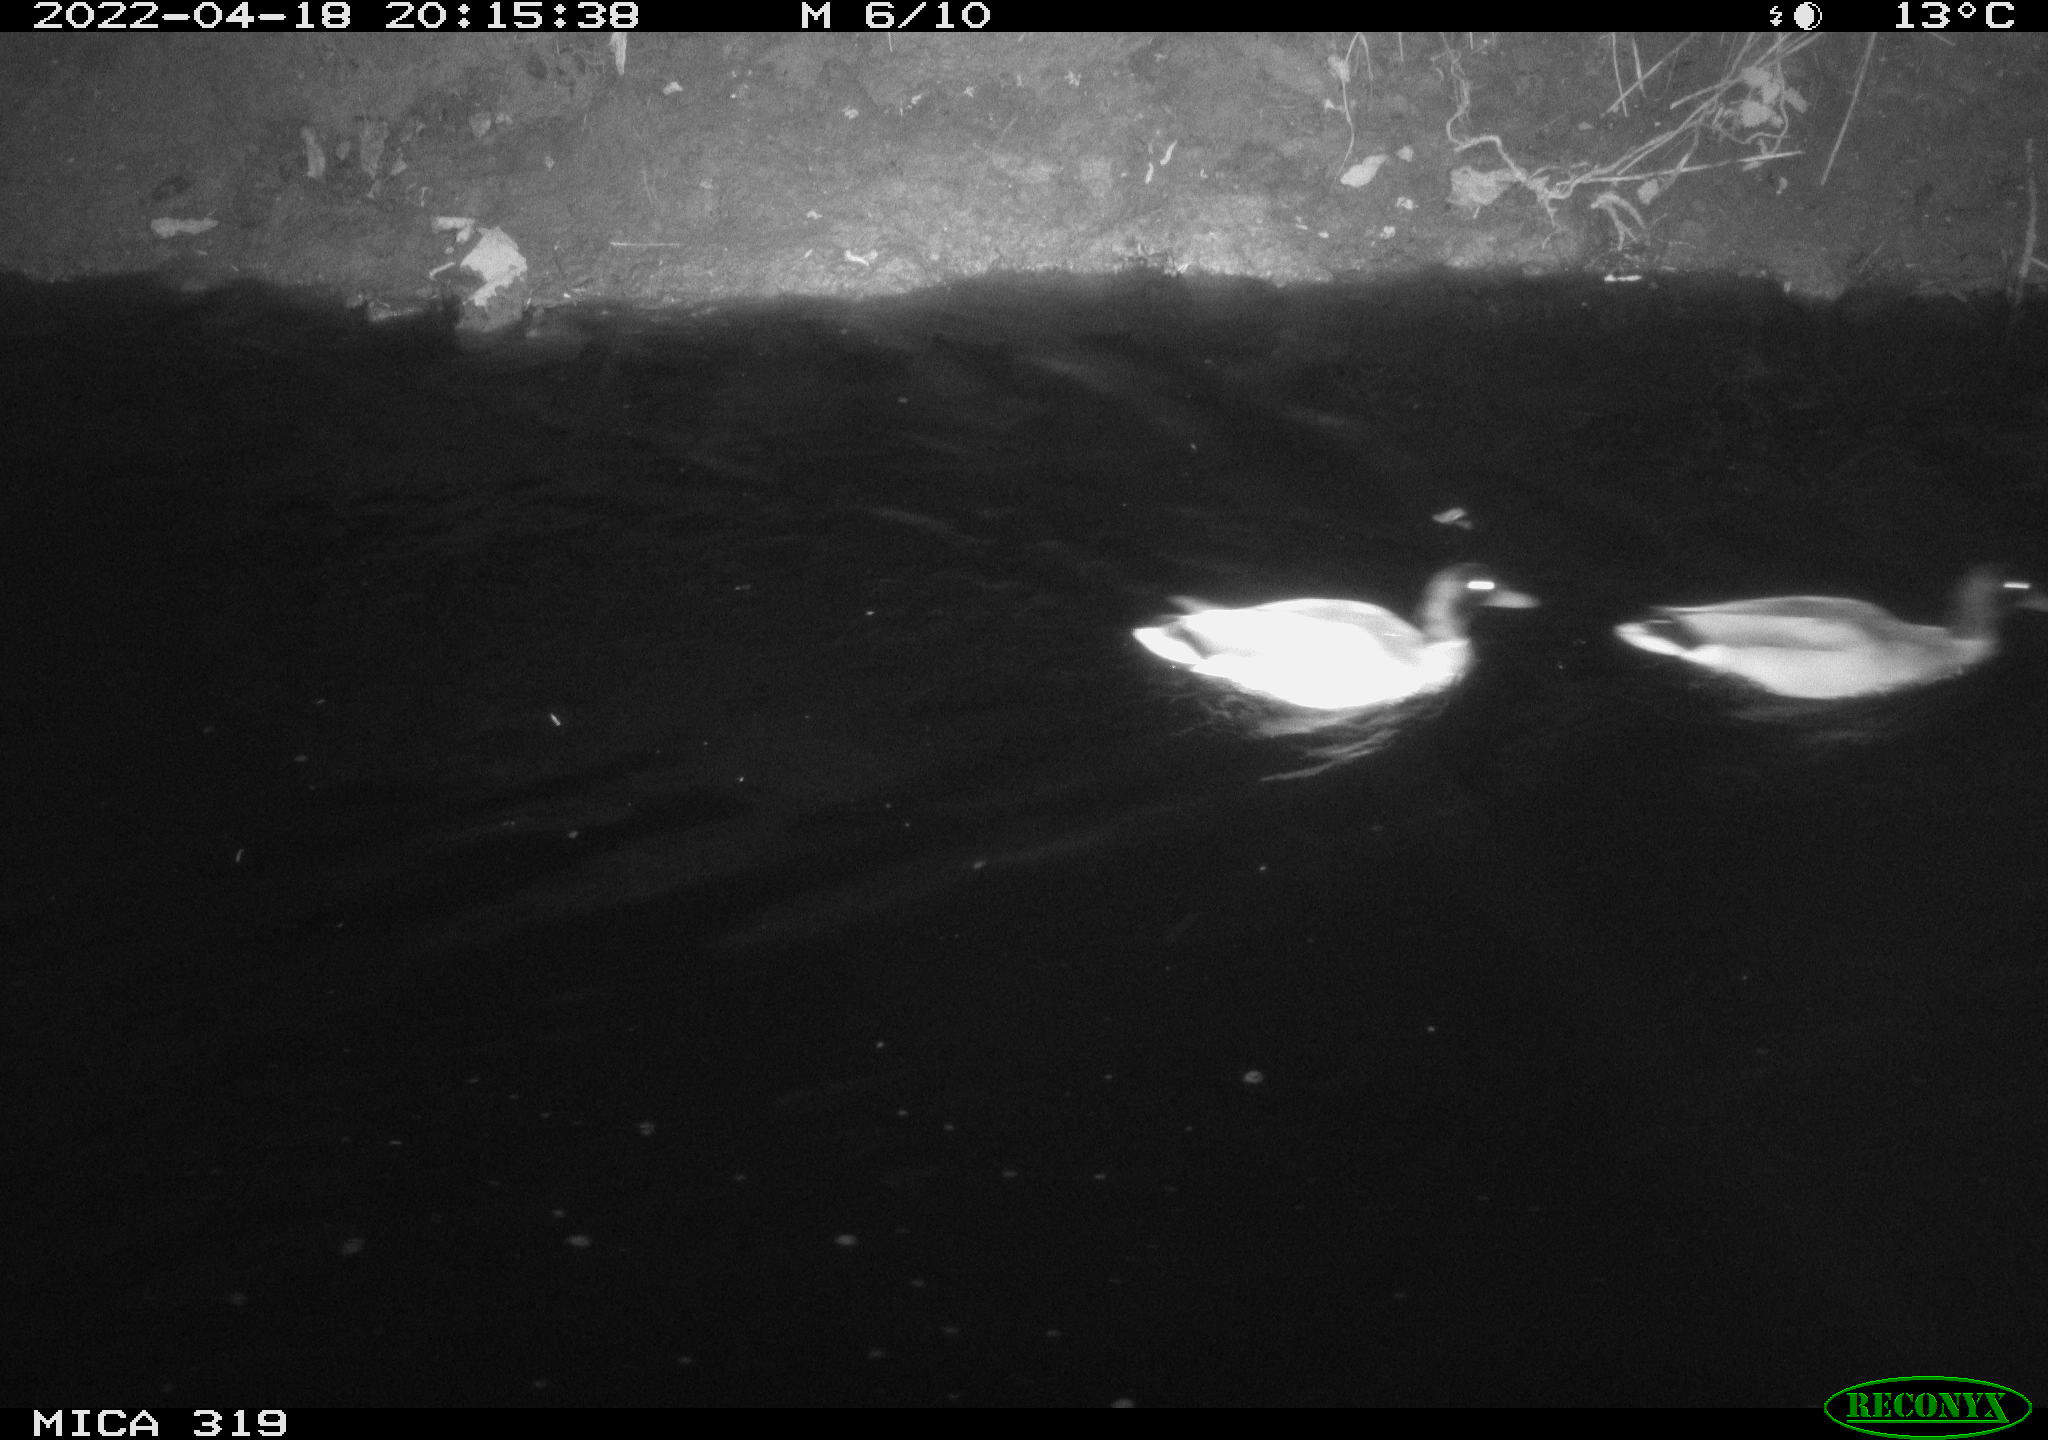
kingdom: Animalia
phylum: Chordata
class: Aves
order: Anseriformes
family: Anatidae
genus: Anas
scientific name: Anas platyrhynchos
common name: Mallard
